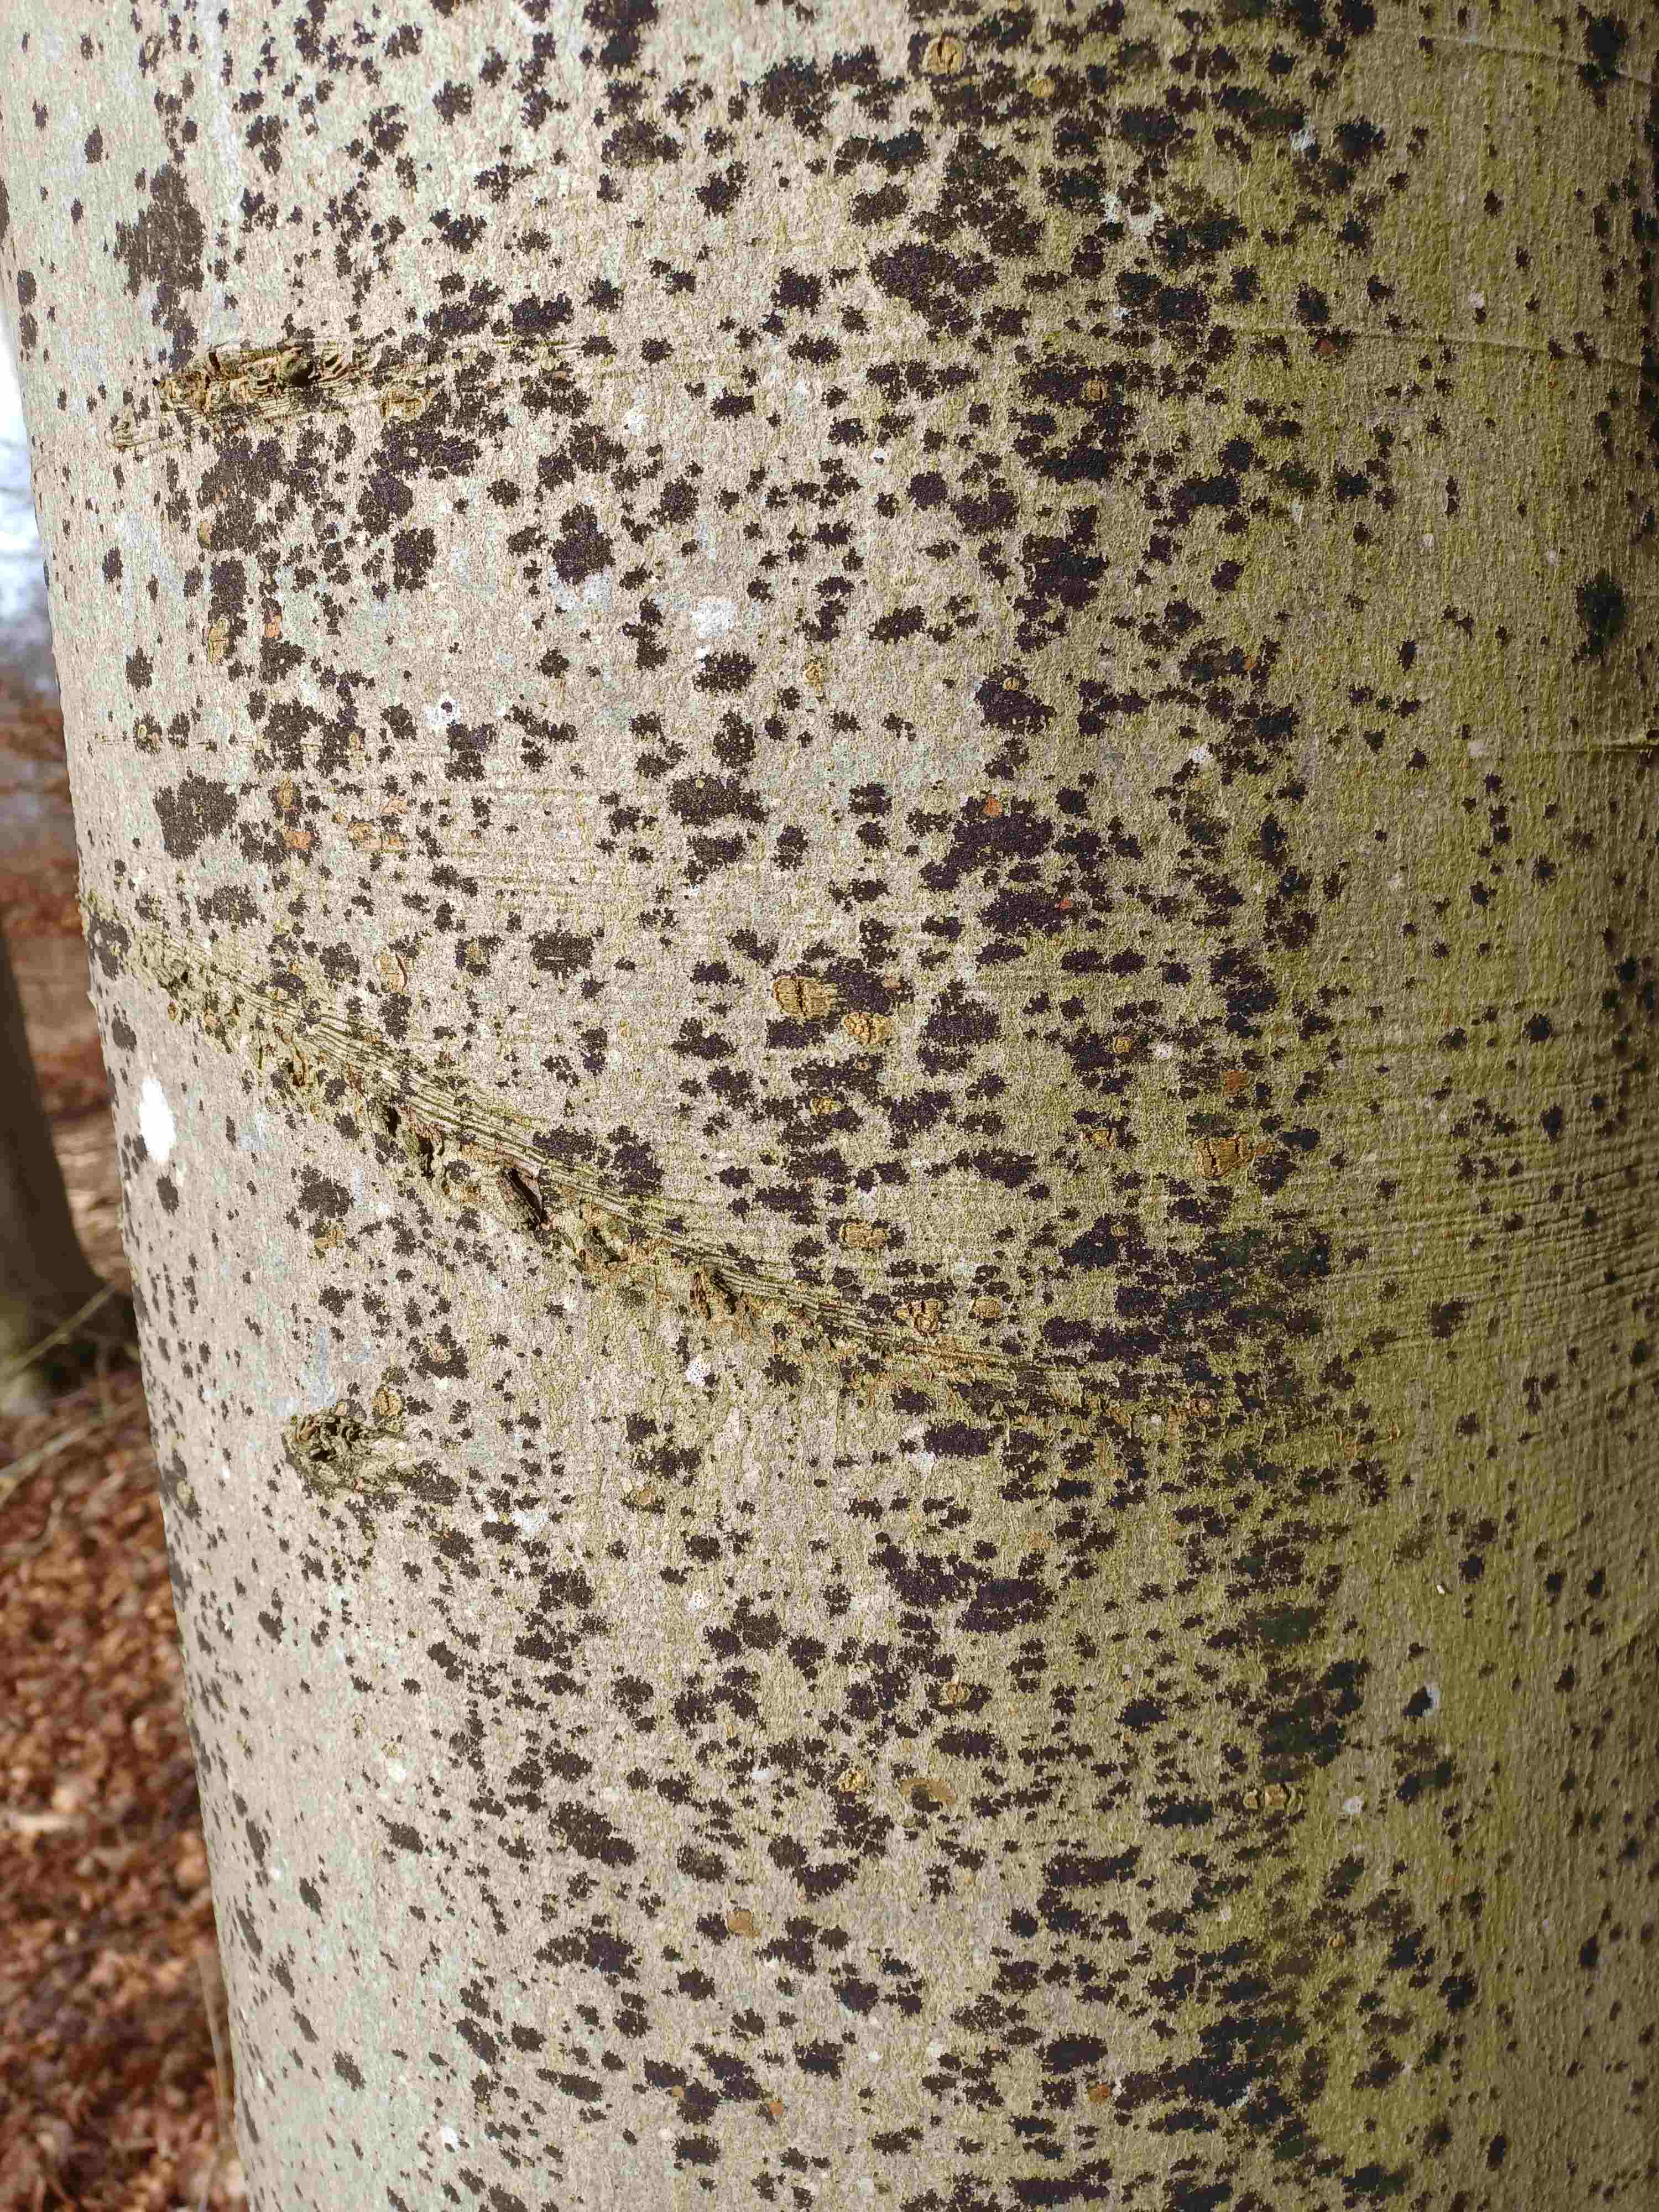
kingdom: Fungi
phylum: Ascomycota
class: Leotiomycetes
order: Rhytismatales
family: Ascodichaenaceae
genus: Ascodichaena
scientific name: Ascodichaena rugosa
